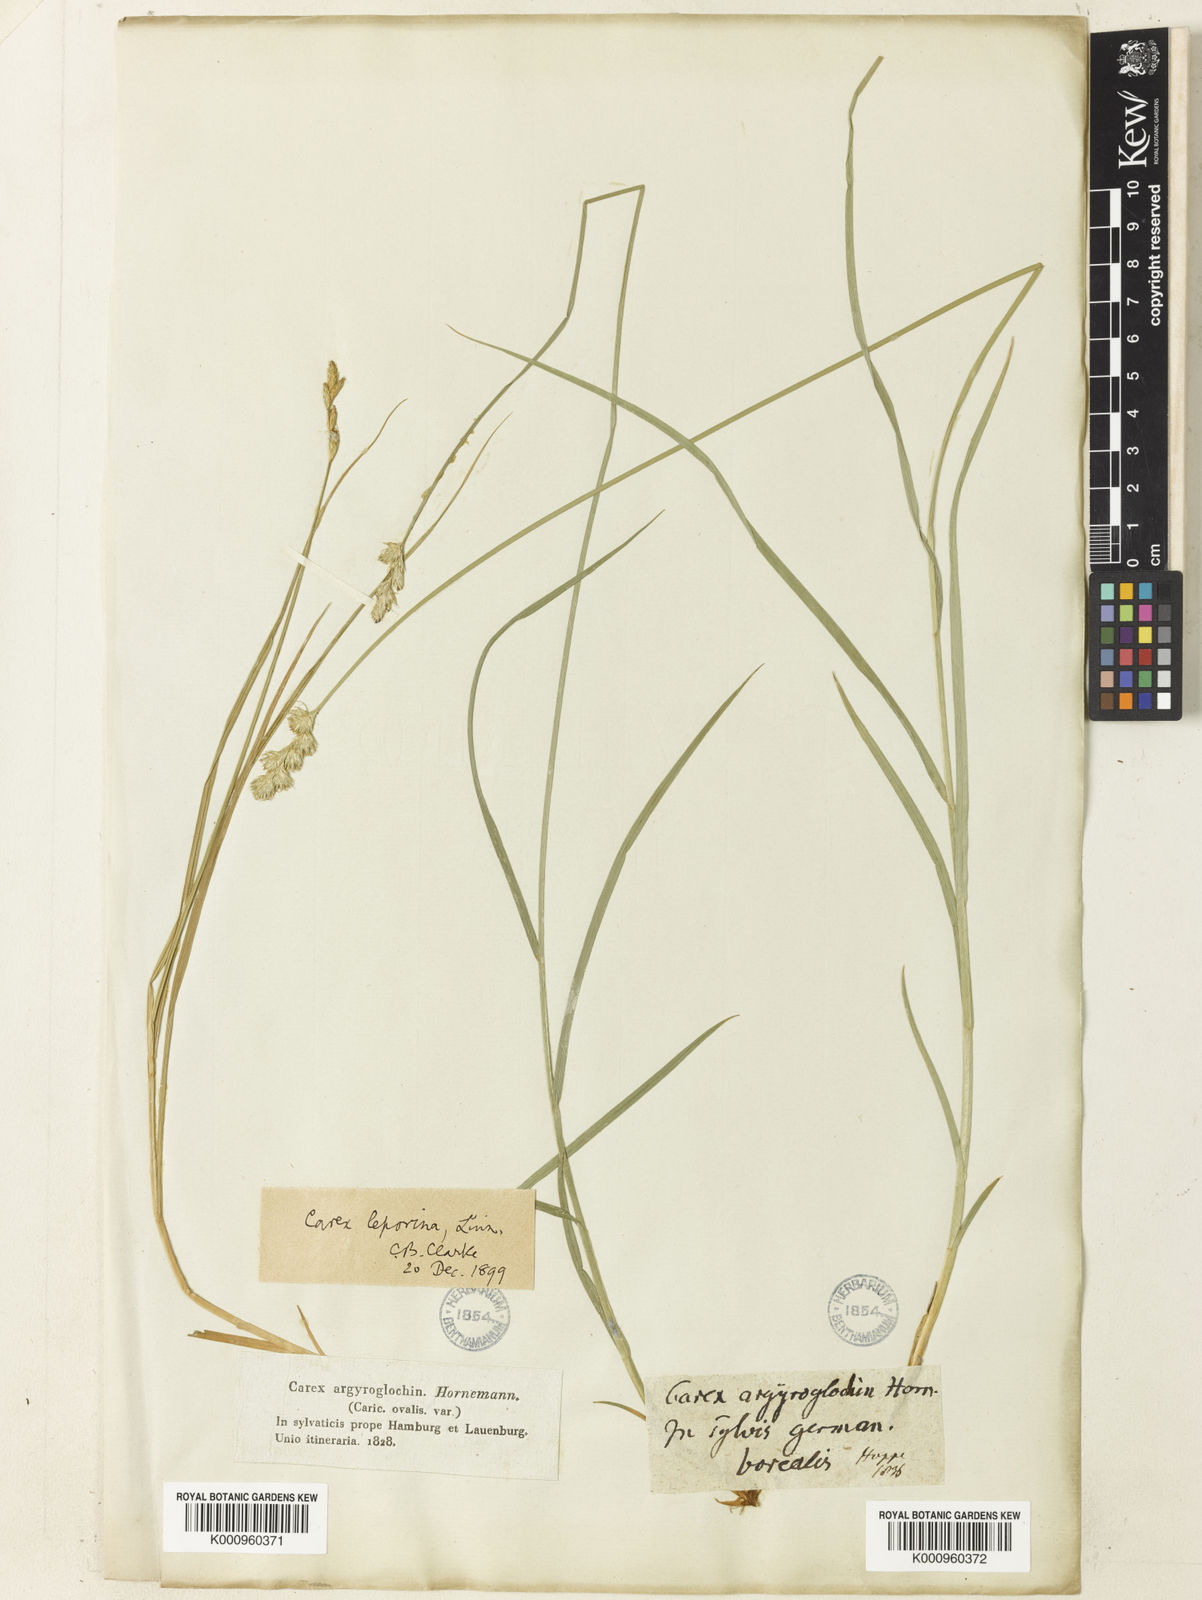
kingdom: Plantae
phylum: Tracheophyta
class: Liliopsida
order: Poales
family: Cyperaceae
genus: Carex
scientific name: Carex leporina
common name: Oval sedge
